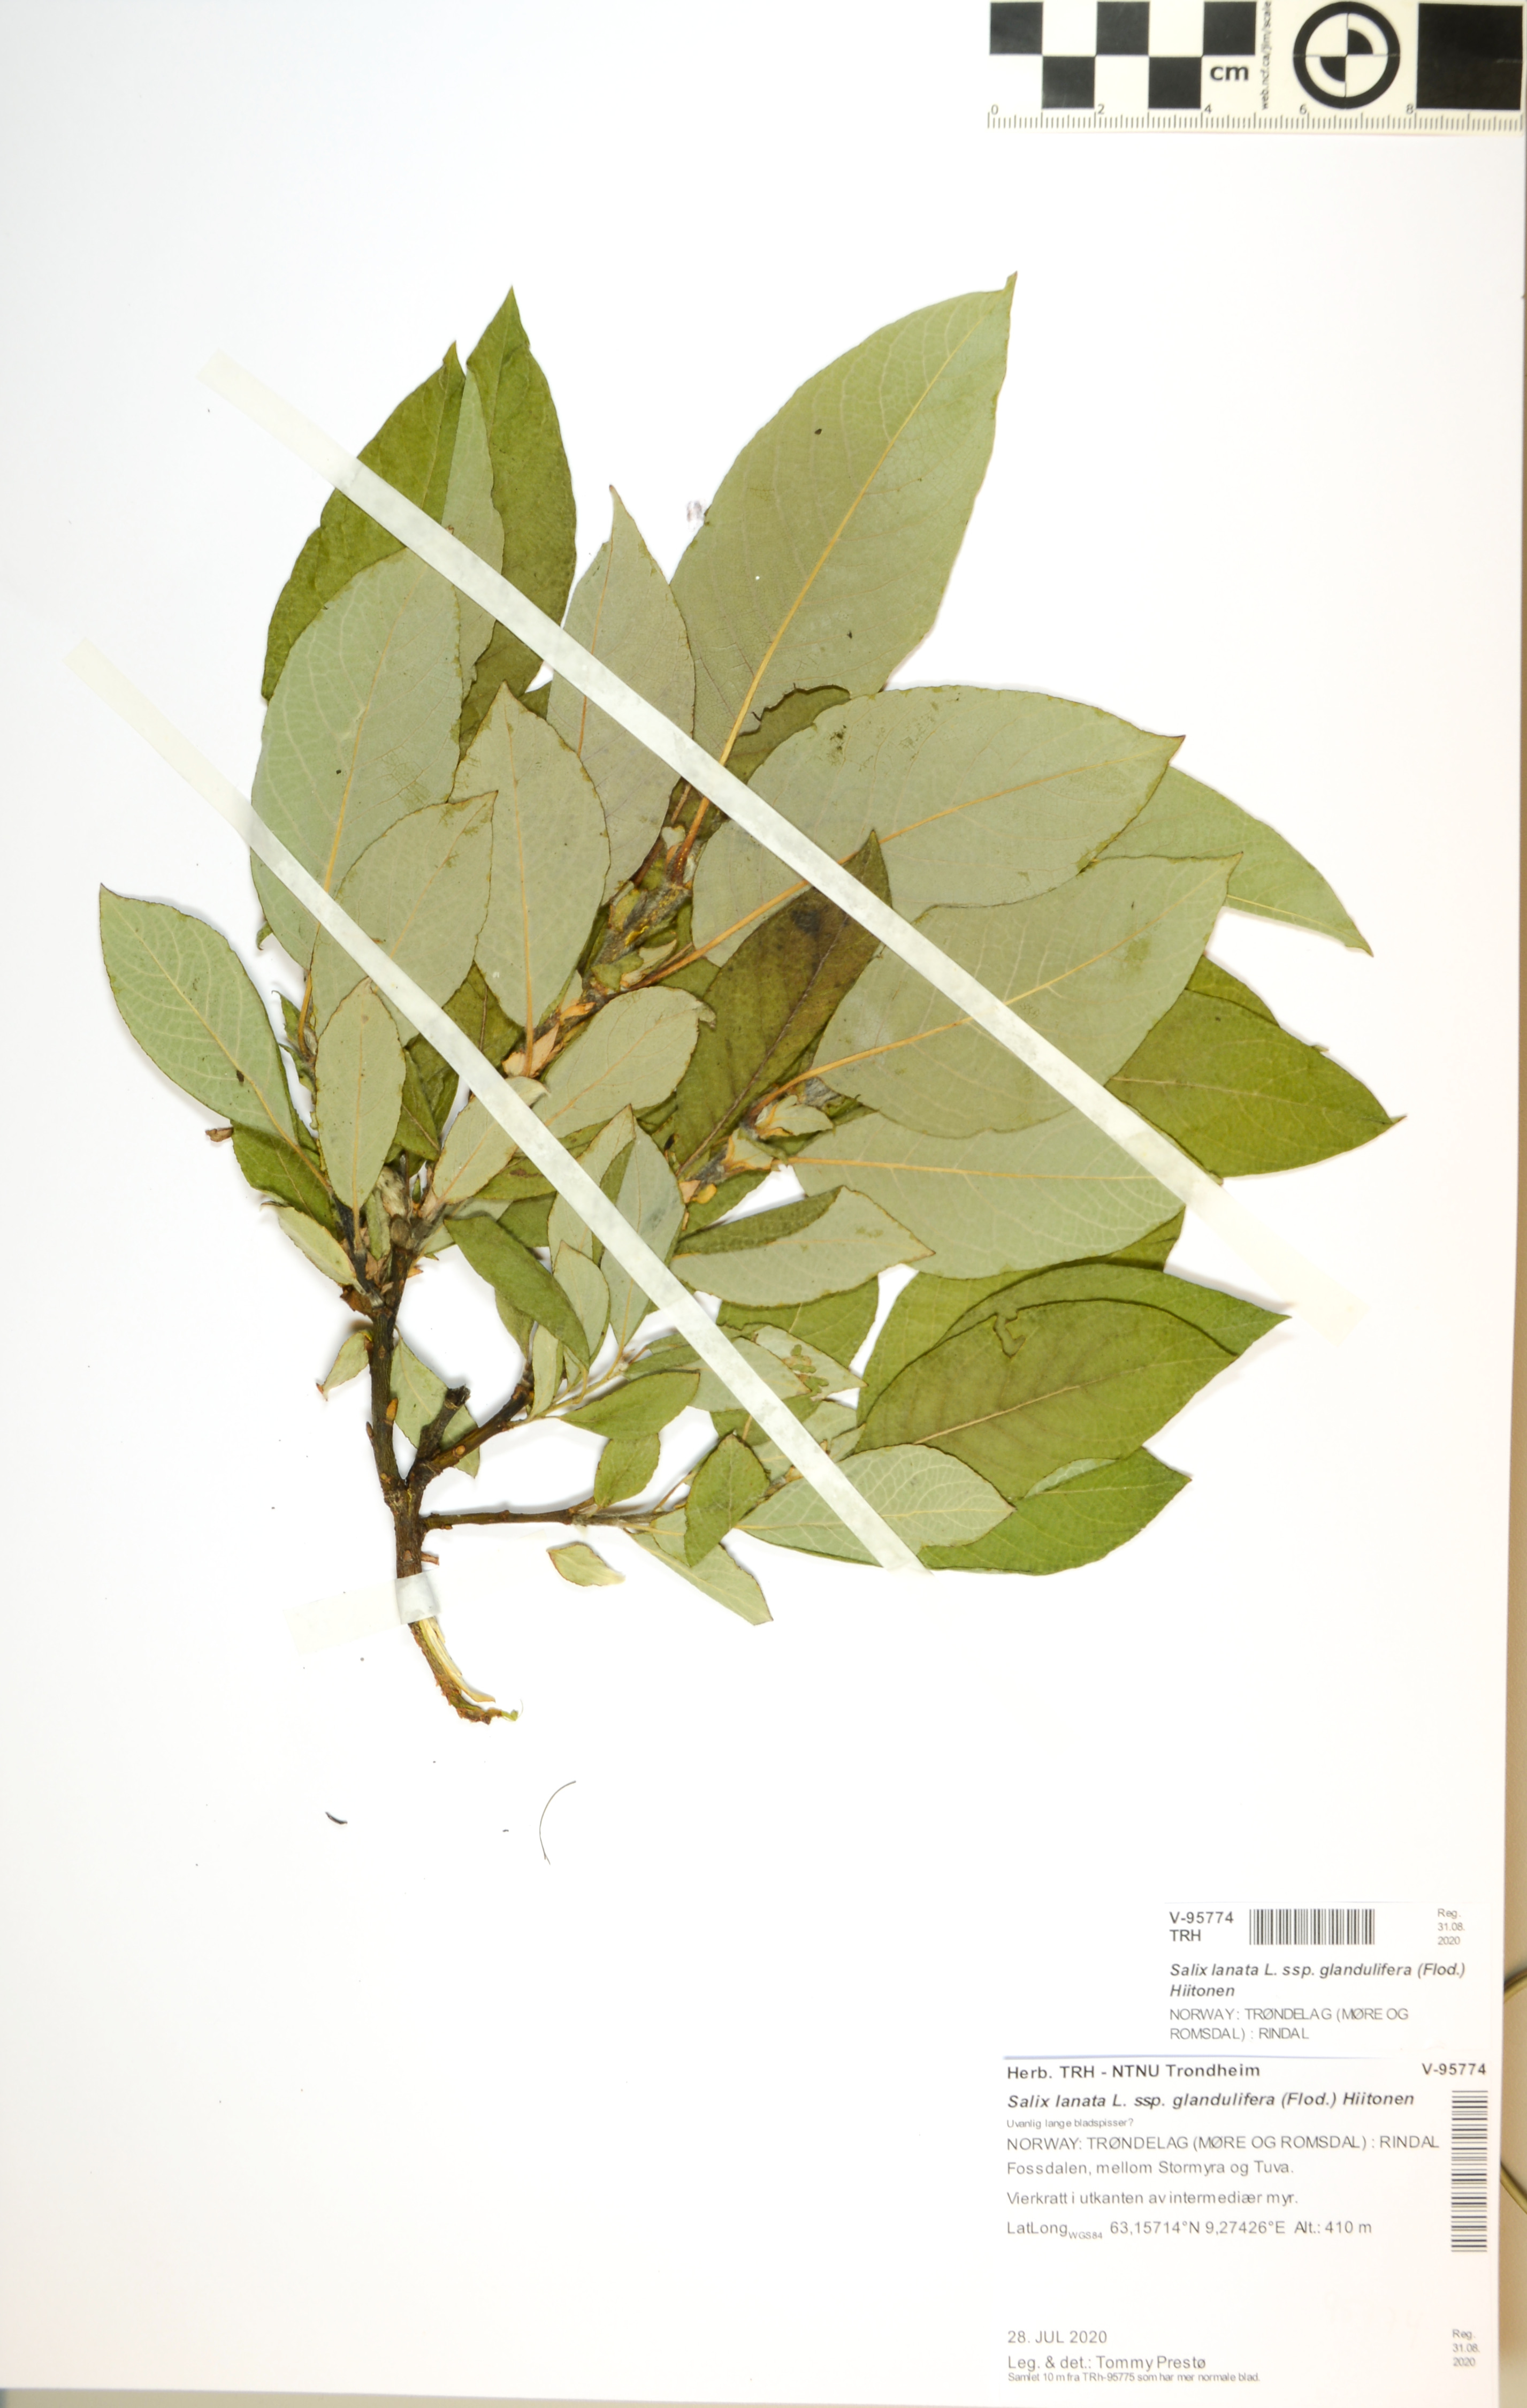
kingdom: Plantae
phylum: Tracheophyta
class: Magnoliopsida
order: Malpighiales
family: Salicaceae
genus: Salix
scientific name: Salix lanata
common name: Woolly willow
